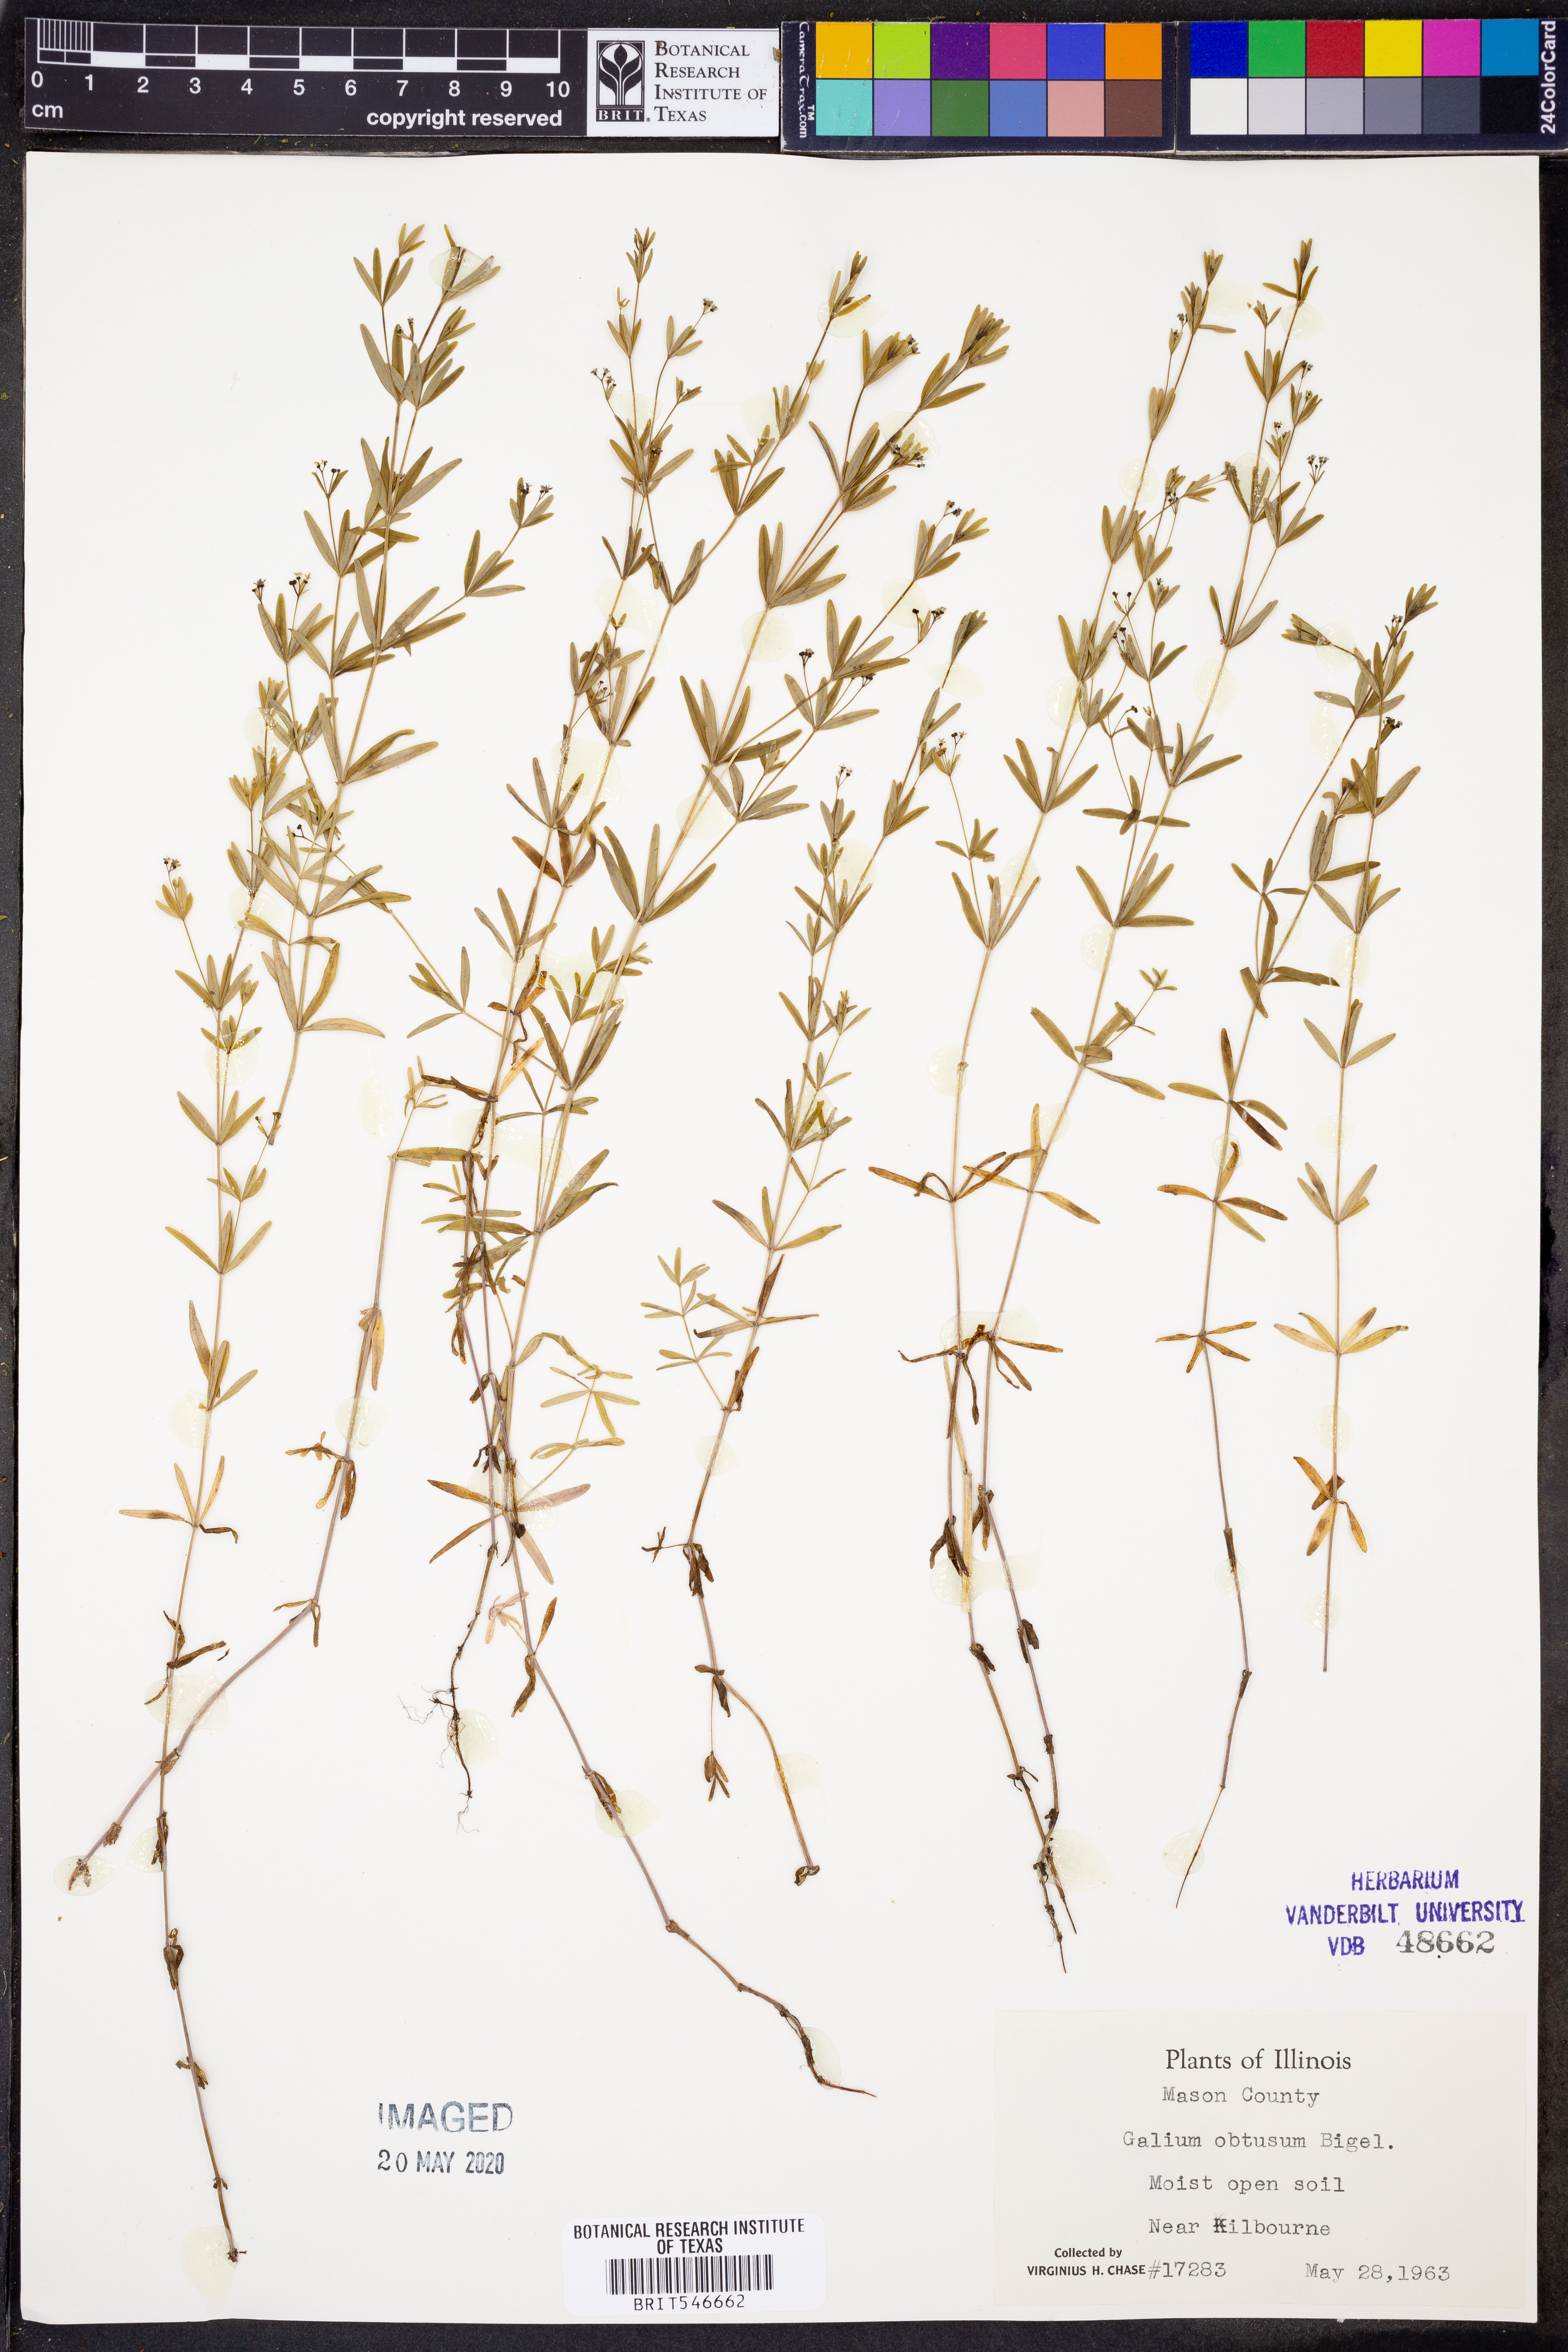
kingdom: Plantae
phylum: Tracheophyta
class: Magnoliopsida
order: Gentianales
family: Rubiaceae
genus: Galium
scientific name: Galium obtusum
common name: Blunt-leaved bedstraw
